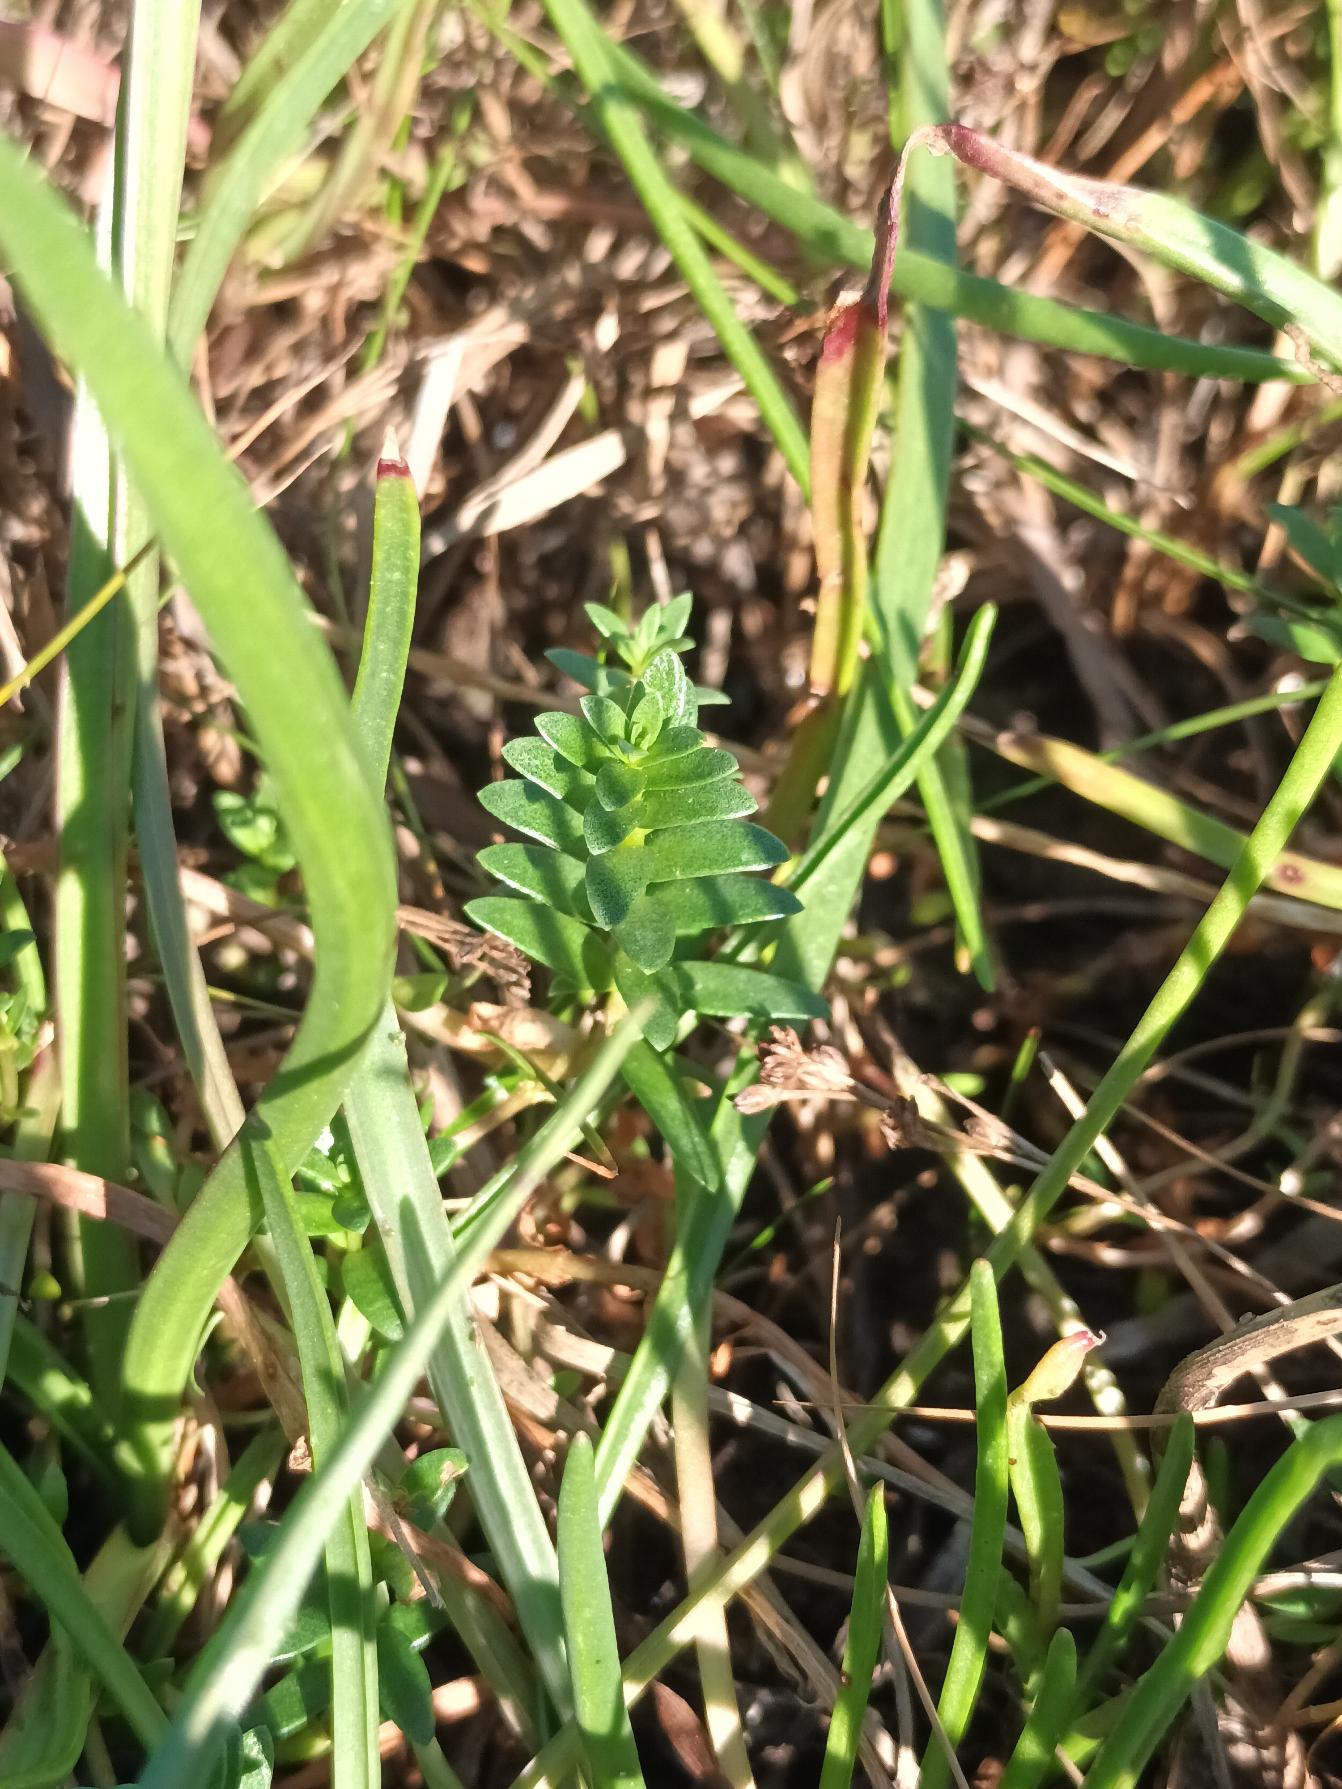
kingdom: Plantae
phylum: Tracheophyta
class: Magnoliopsida
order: Ericales
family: Primulaceae
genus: Lysimachia
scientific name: Lysimachia maritima
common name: Sandkryb
